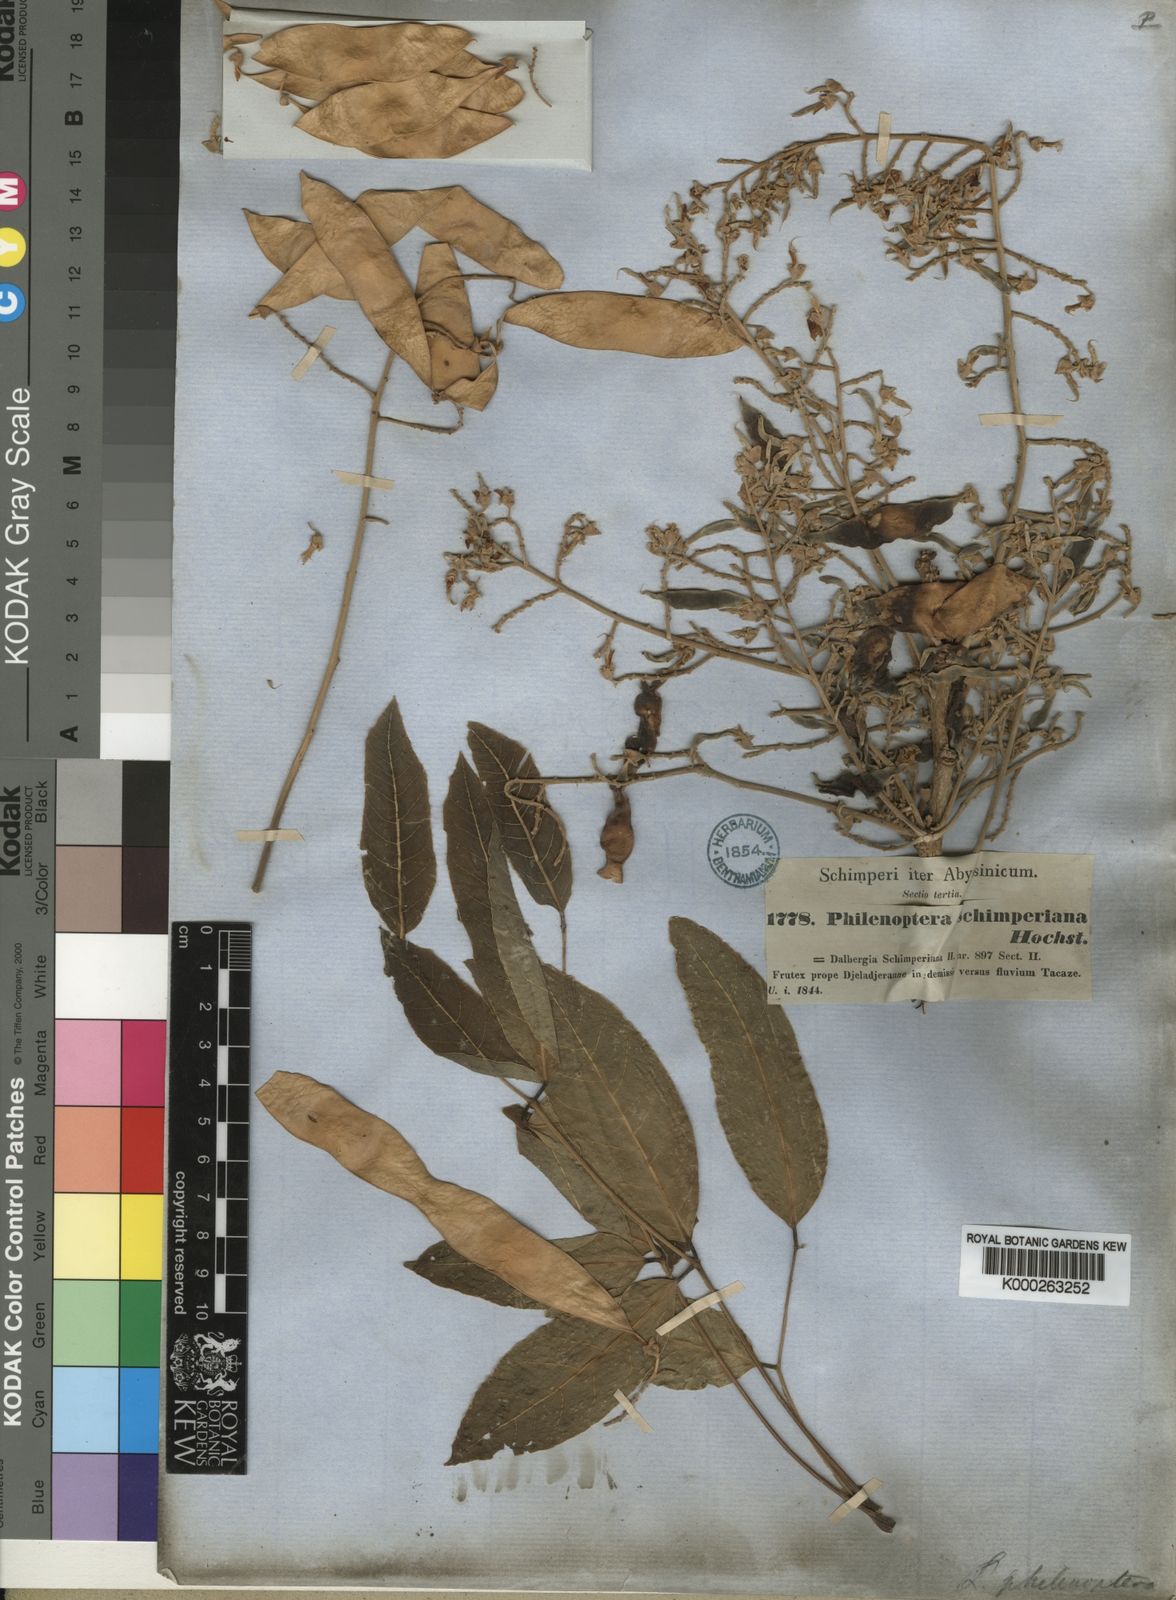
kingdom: Plantae
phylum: Tracheophyta
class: Magnoliopsida
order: Fabales
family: Fabaceae
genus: Philenoptera
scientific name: Philenoptera laxiflora
